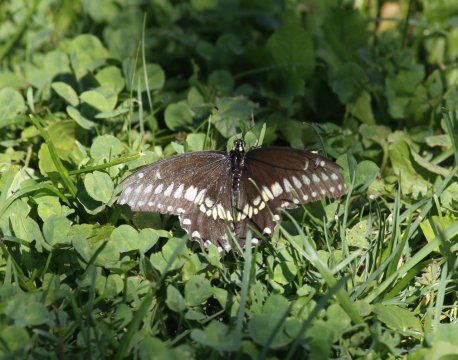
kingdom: Animalia
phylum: Arthropoda
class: Insecta
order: Lepidoptera
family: Papilionidae
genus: Papilio
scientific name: Papilio polyxenes
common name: Black Swallowtail
